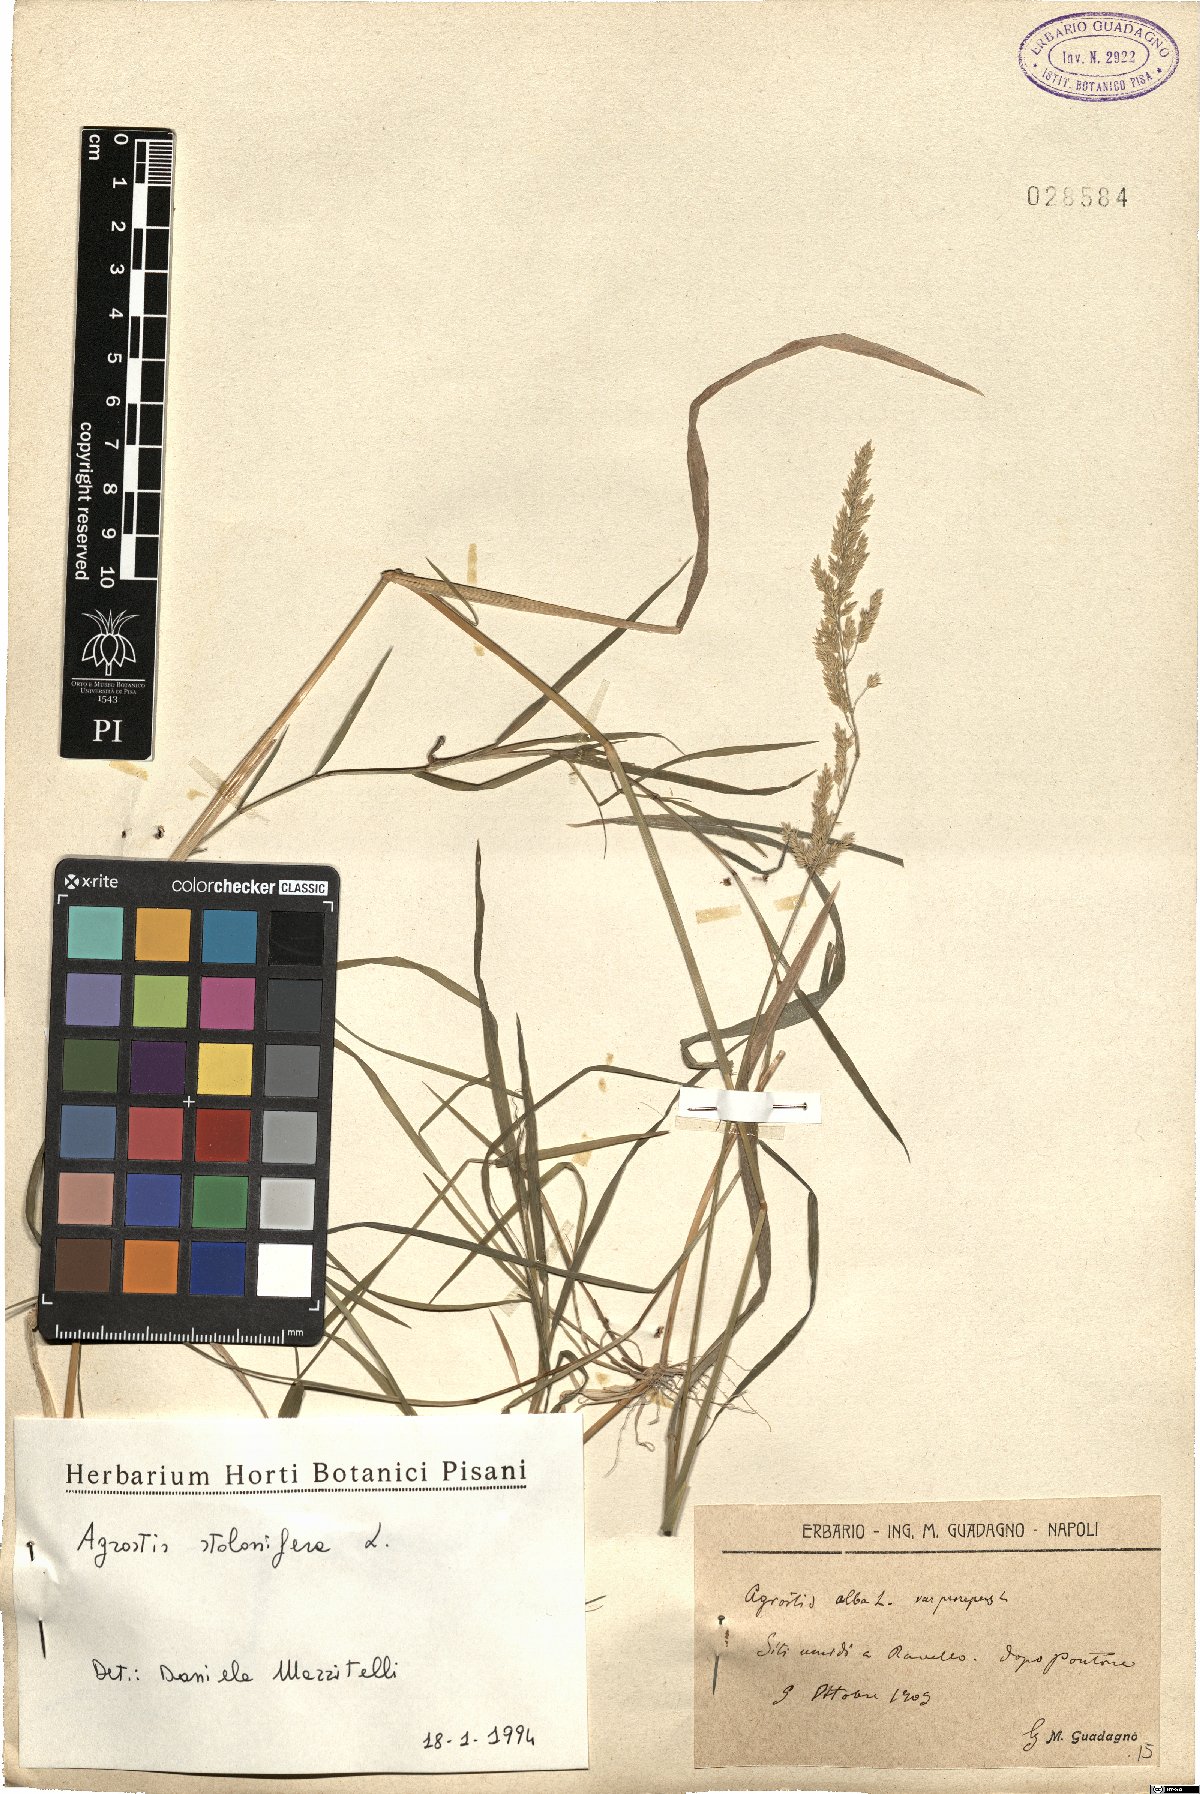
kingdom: Plantae
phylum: Tracheophyta
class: Liliopsida
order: Poales
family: Poaceae
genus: Agrostis
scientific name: Agrostis stolonifera
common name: Creeping bentgrass
